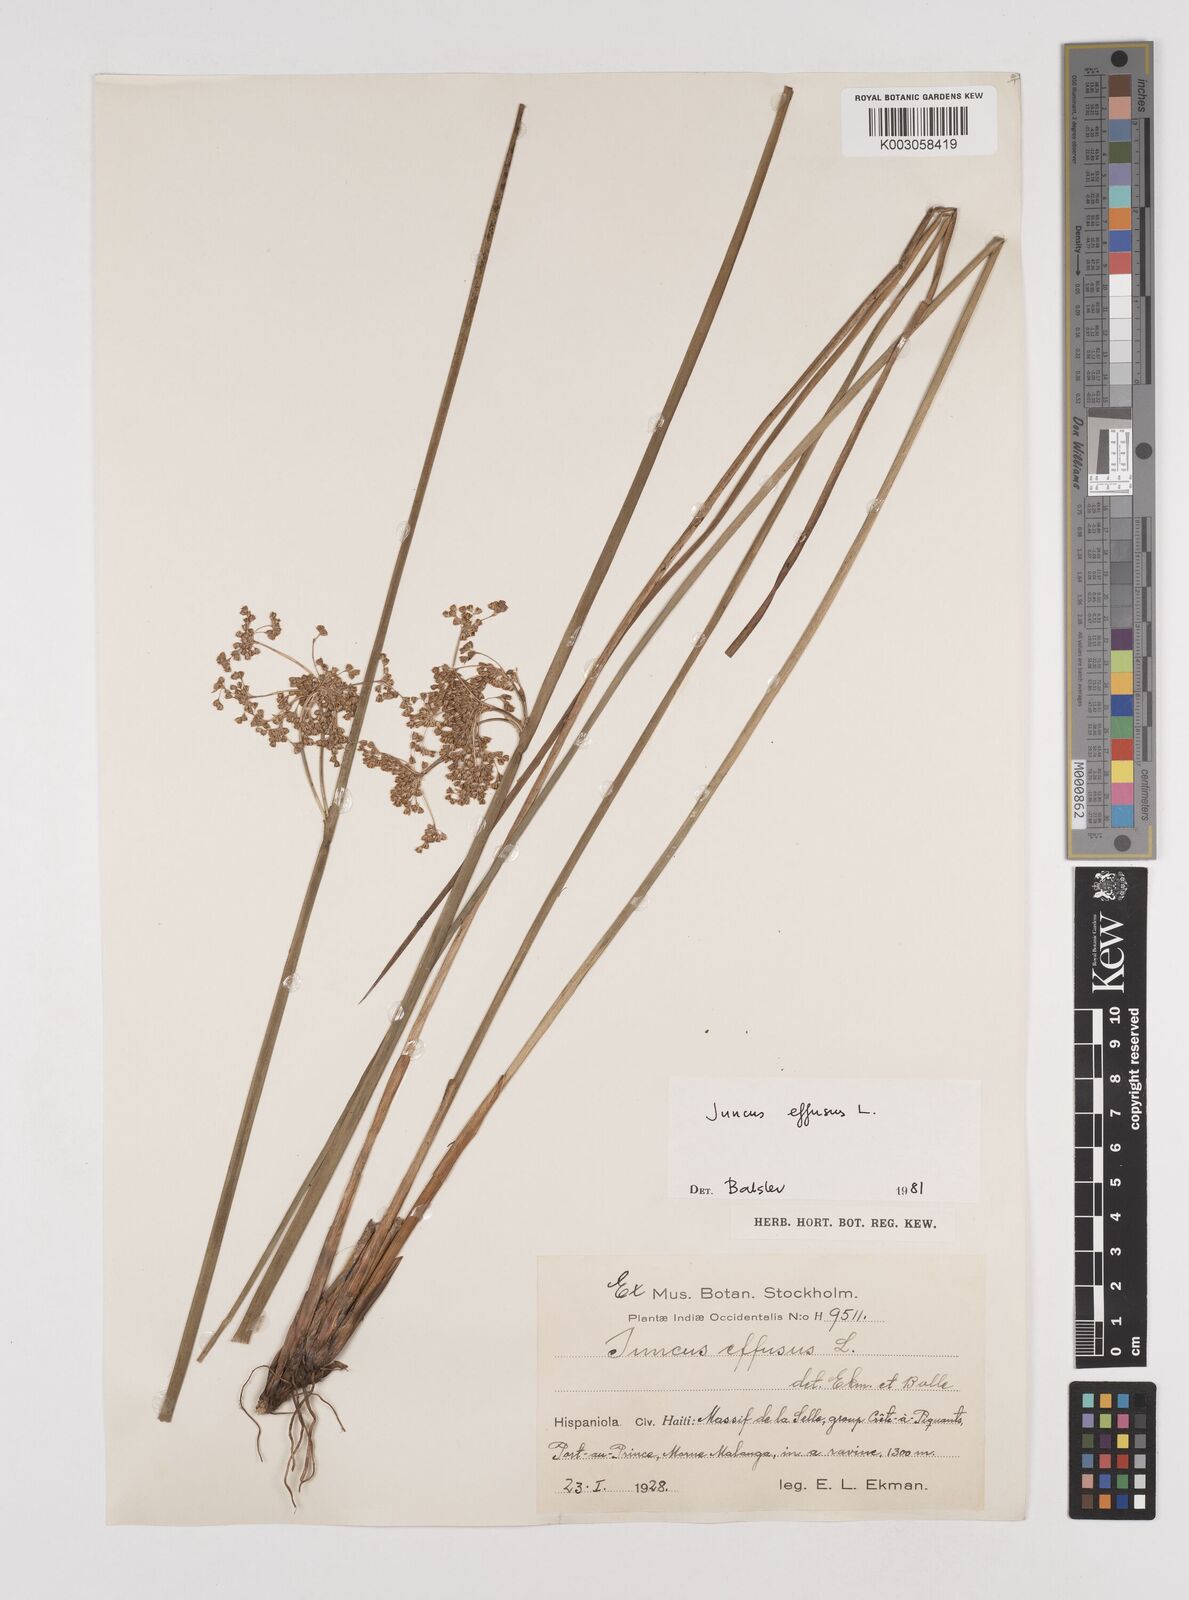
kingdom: Plantae
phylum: Tracheophyta
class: Liliopsida
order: Poales
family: Juncaceae
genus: Juncus
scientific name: Juncus effusus
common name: Soft rush
